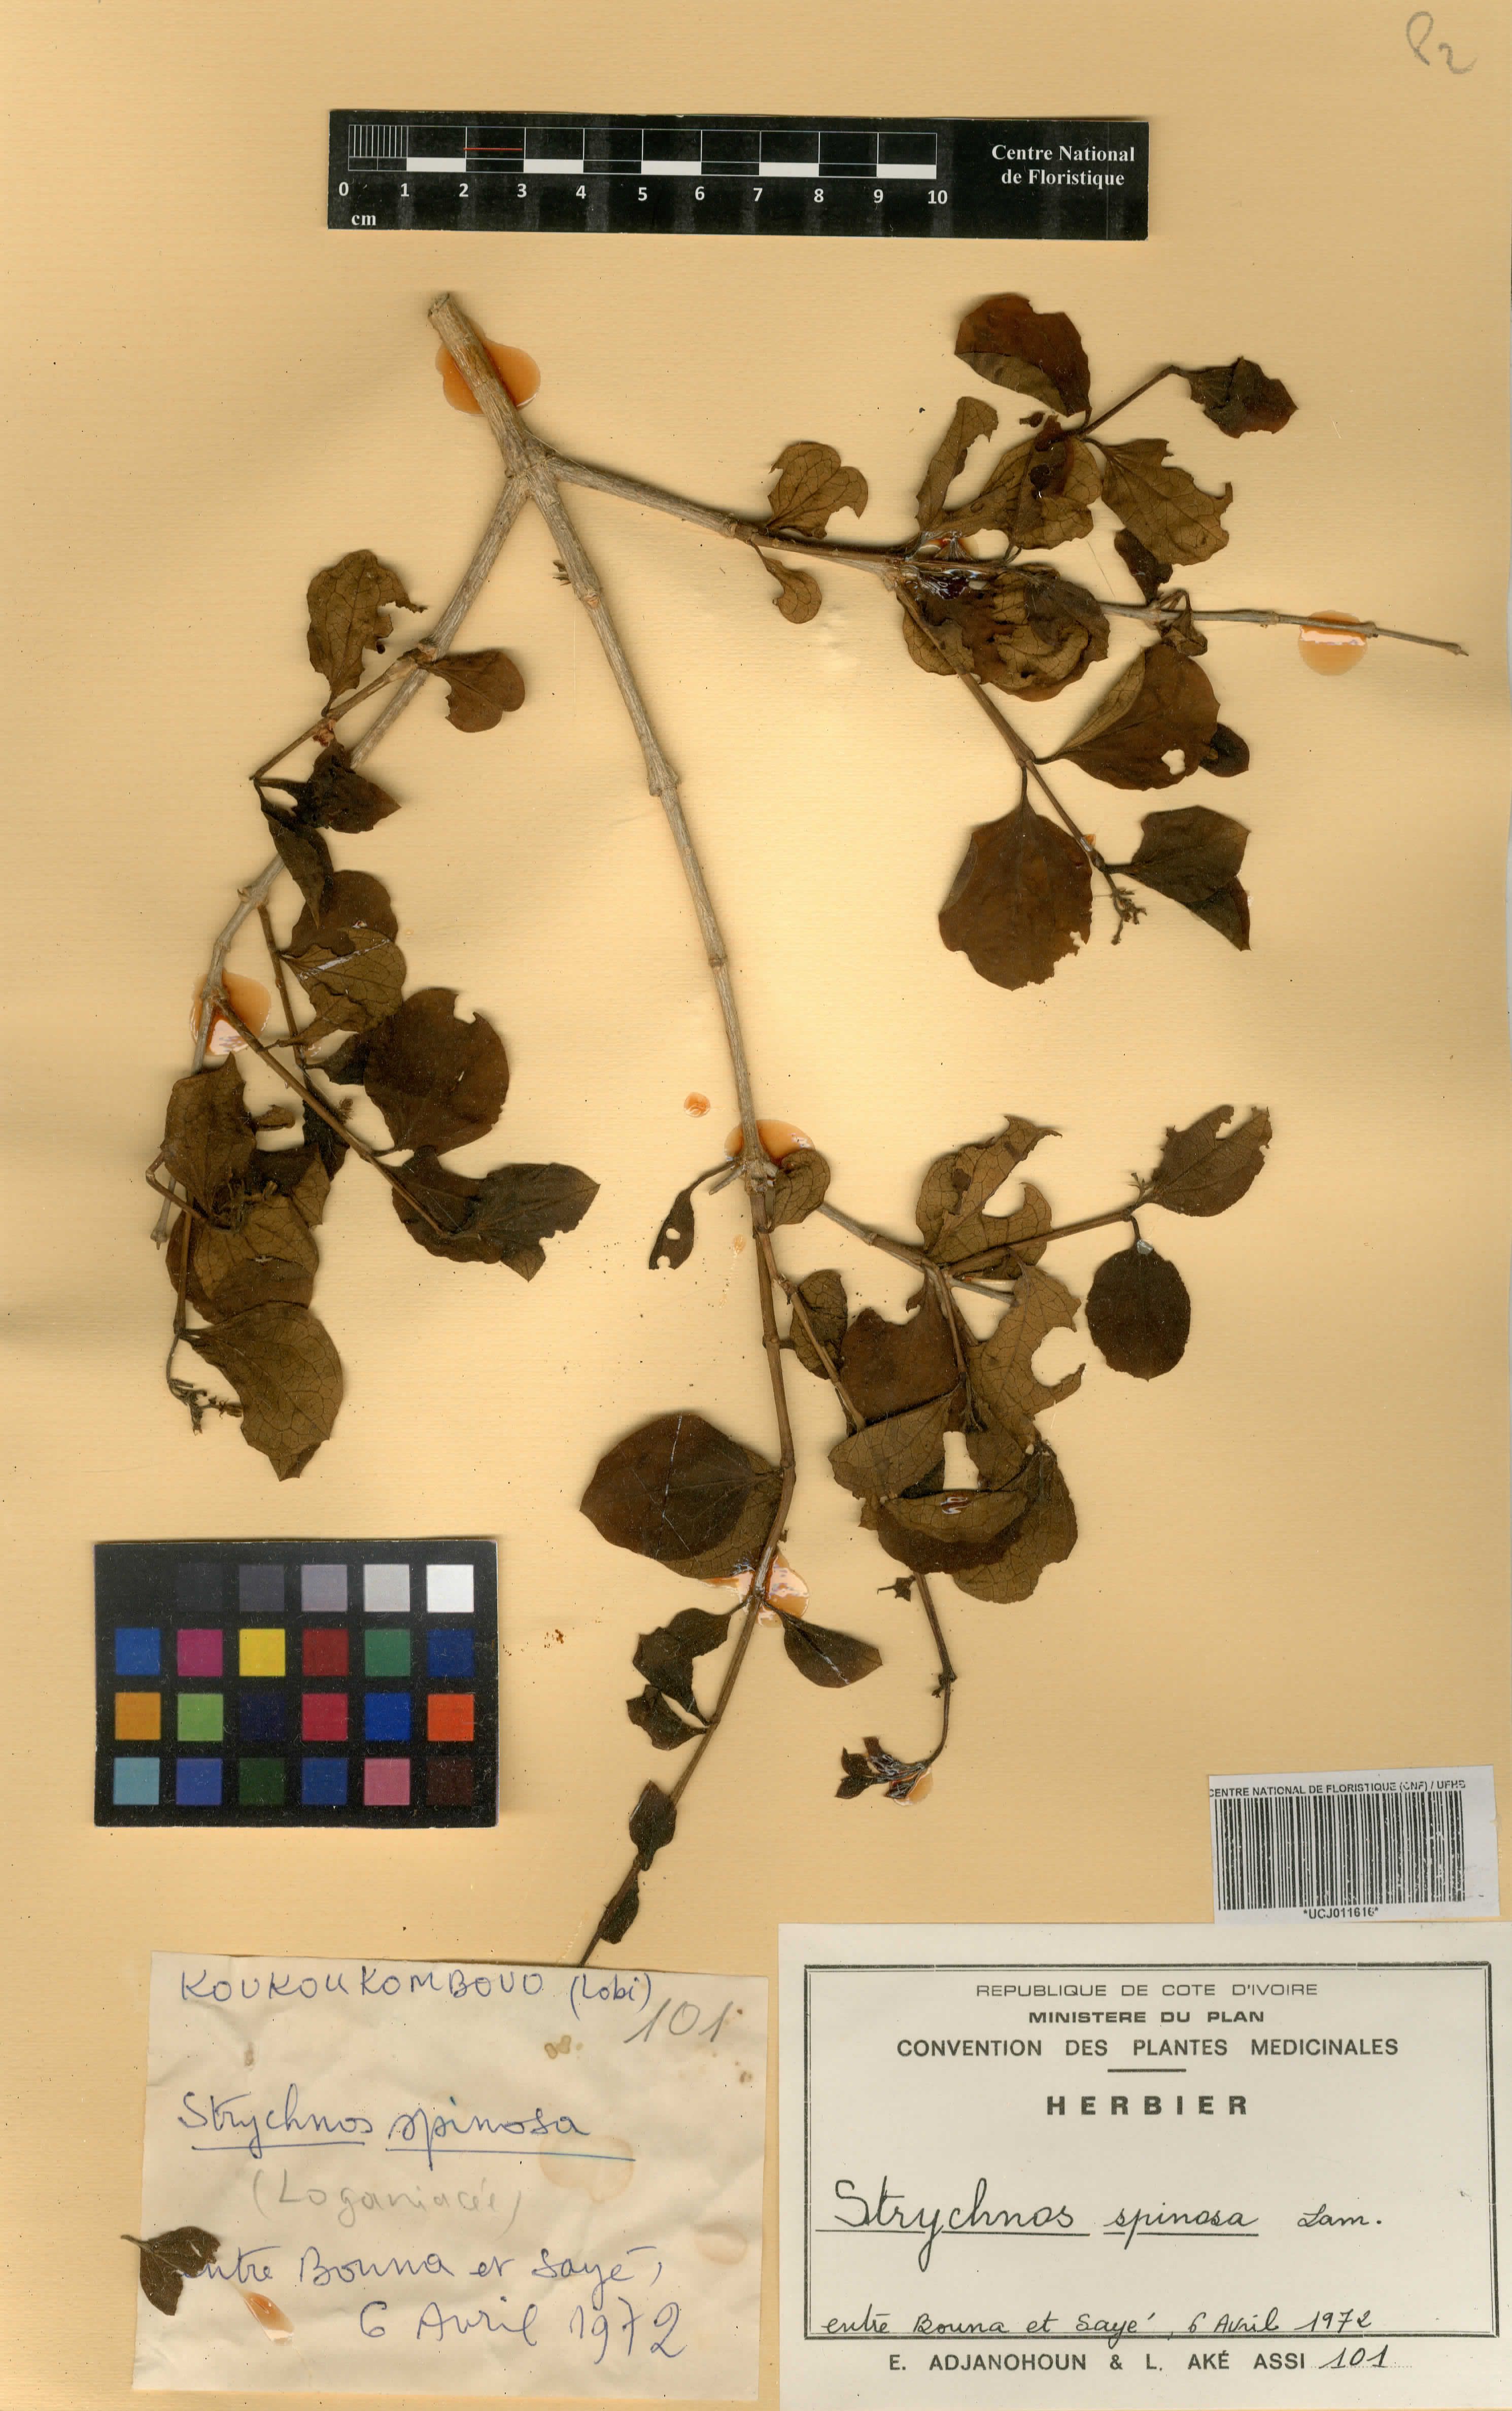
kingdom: Plantae
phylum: Tracheophyta
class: Magnoliopsida
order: Gentianales
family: Loganiaceae
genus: Strychnos
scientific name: Strychnos spinosa
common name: Natal orange
